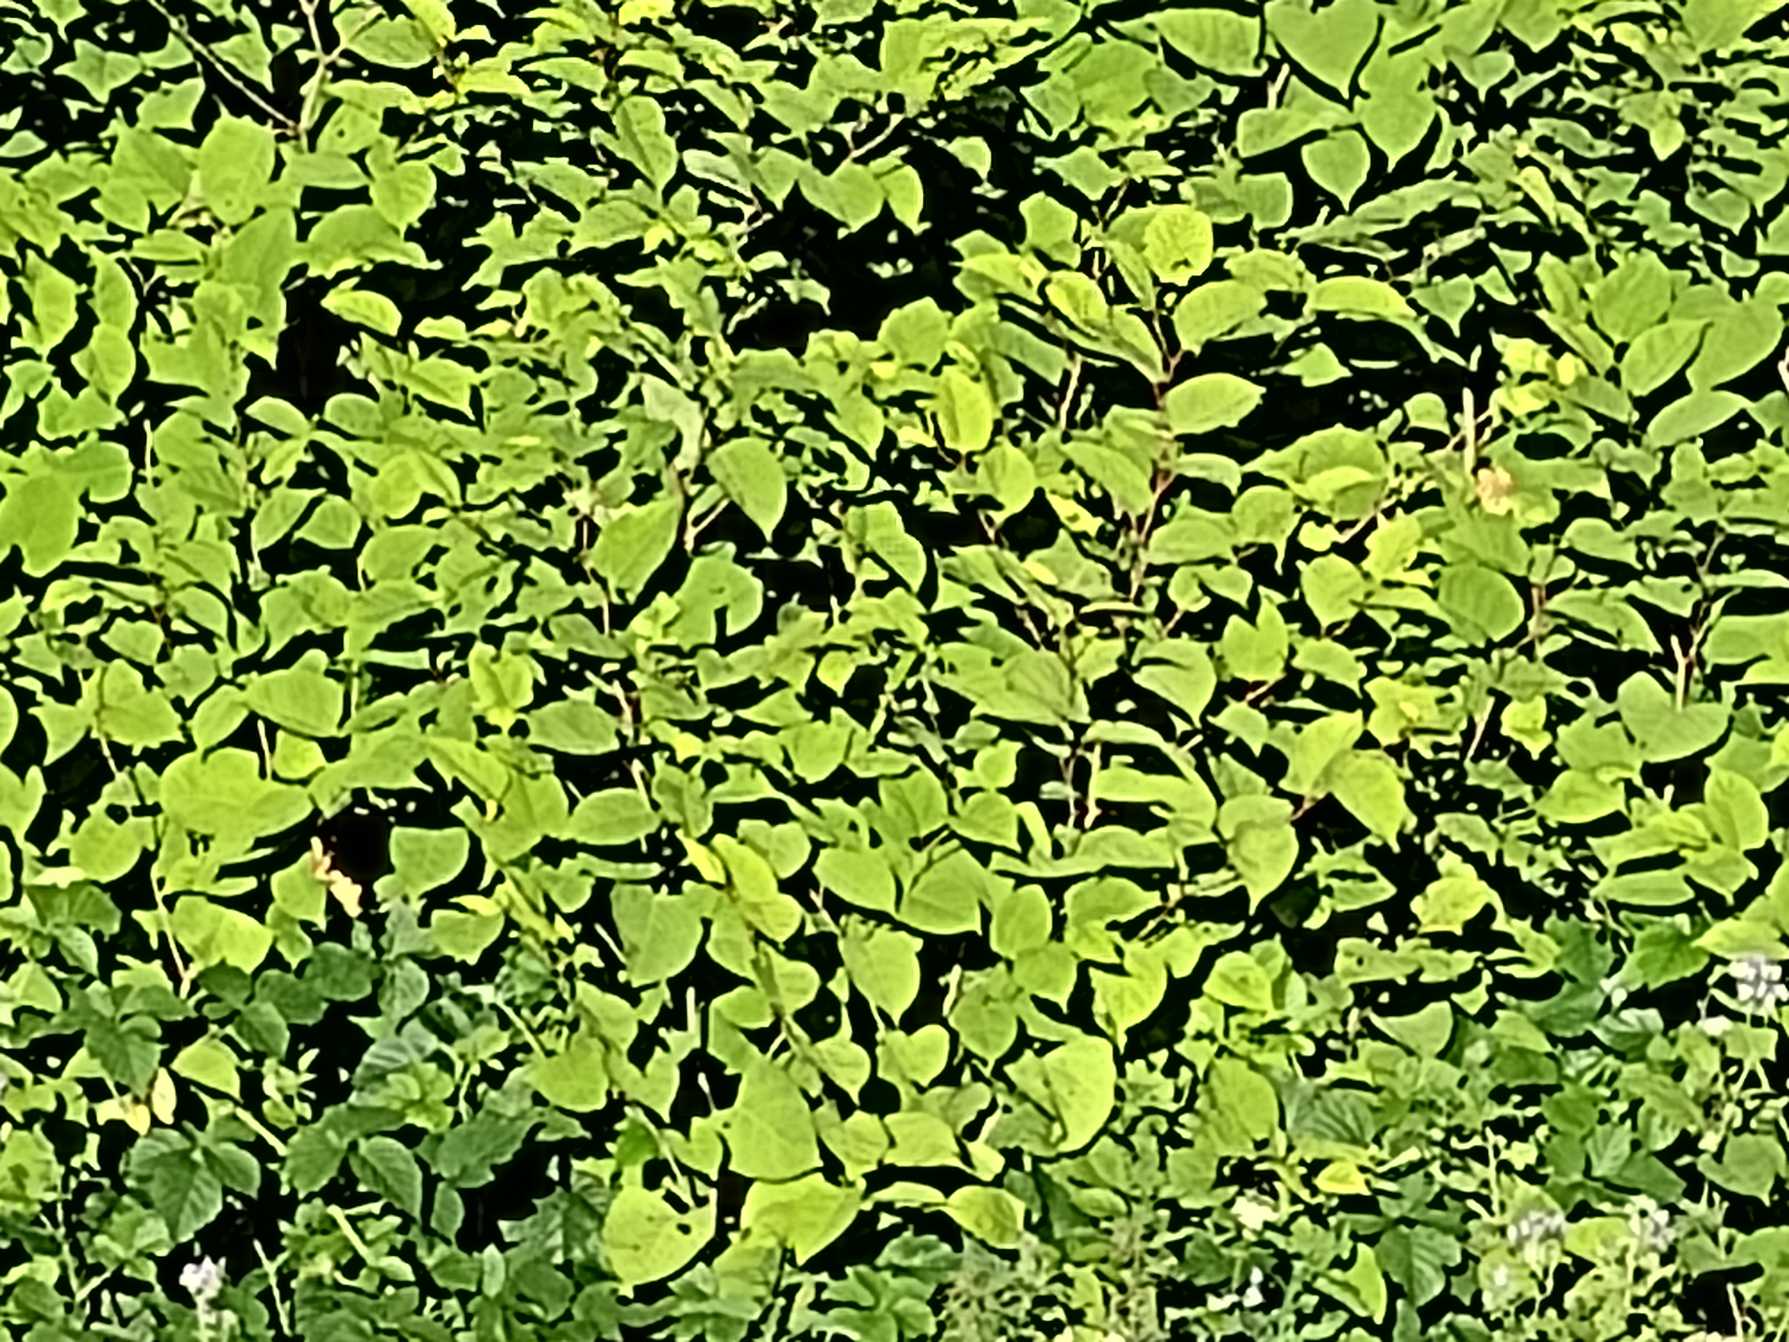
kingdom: Plantae
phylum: Tracheophyta
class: Magnoliopsida
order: Caryophyllales
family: Polygonaceae
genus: Reynoutria
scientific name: Reynoutria japonica
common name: Japan-pileurt
